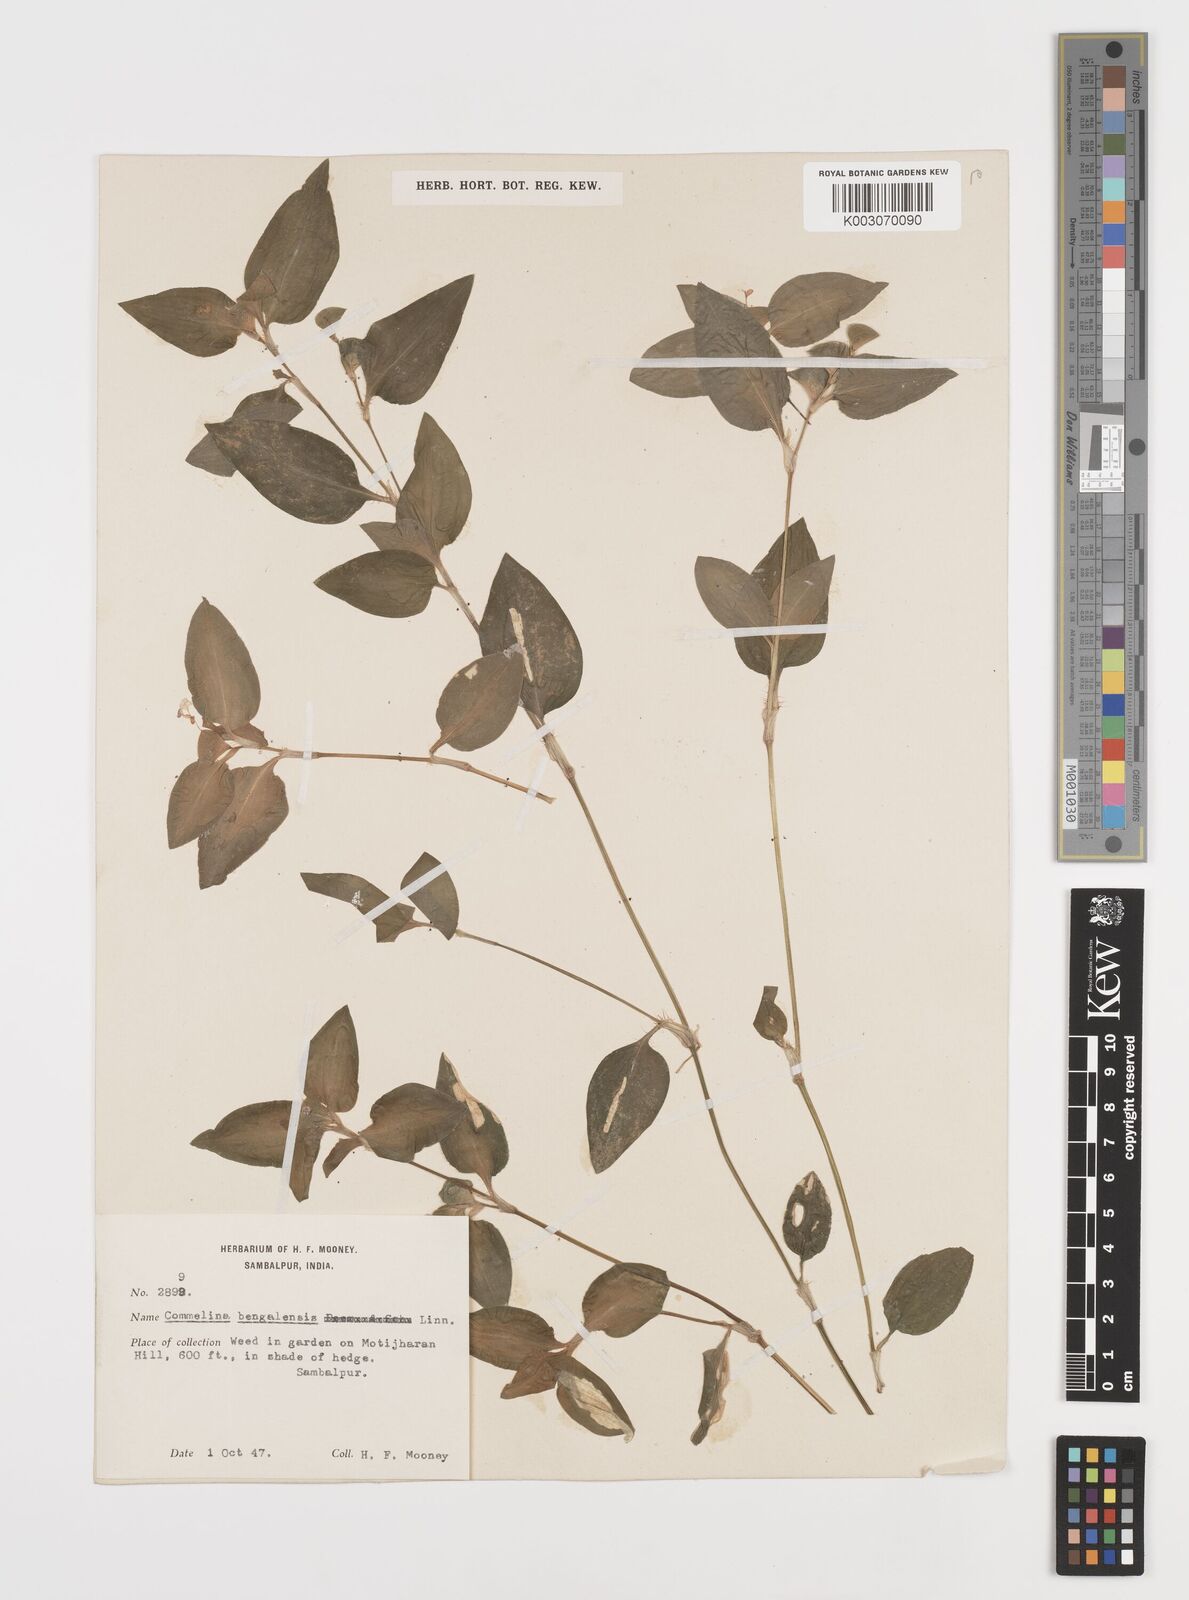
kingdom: Plantae
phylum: Tracheophyta
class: Liliopsida
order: Commelinales
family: Commelinaceae
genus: Commelina
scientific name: Commelina benghalensis
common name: Jio
